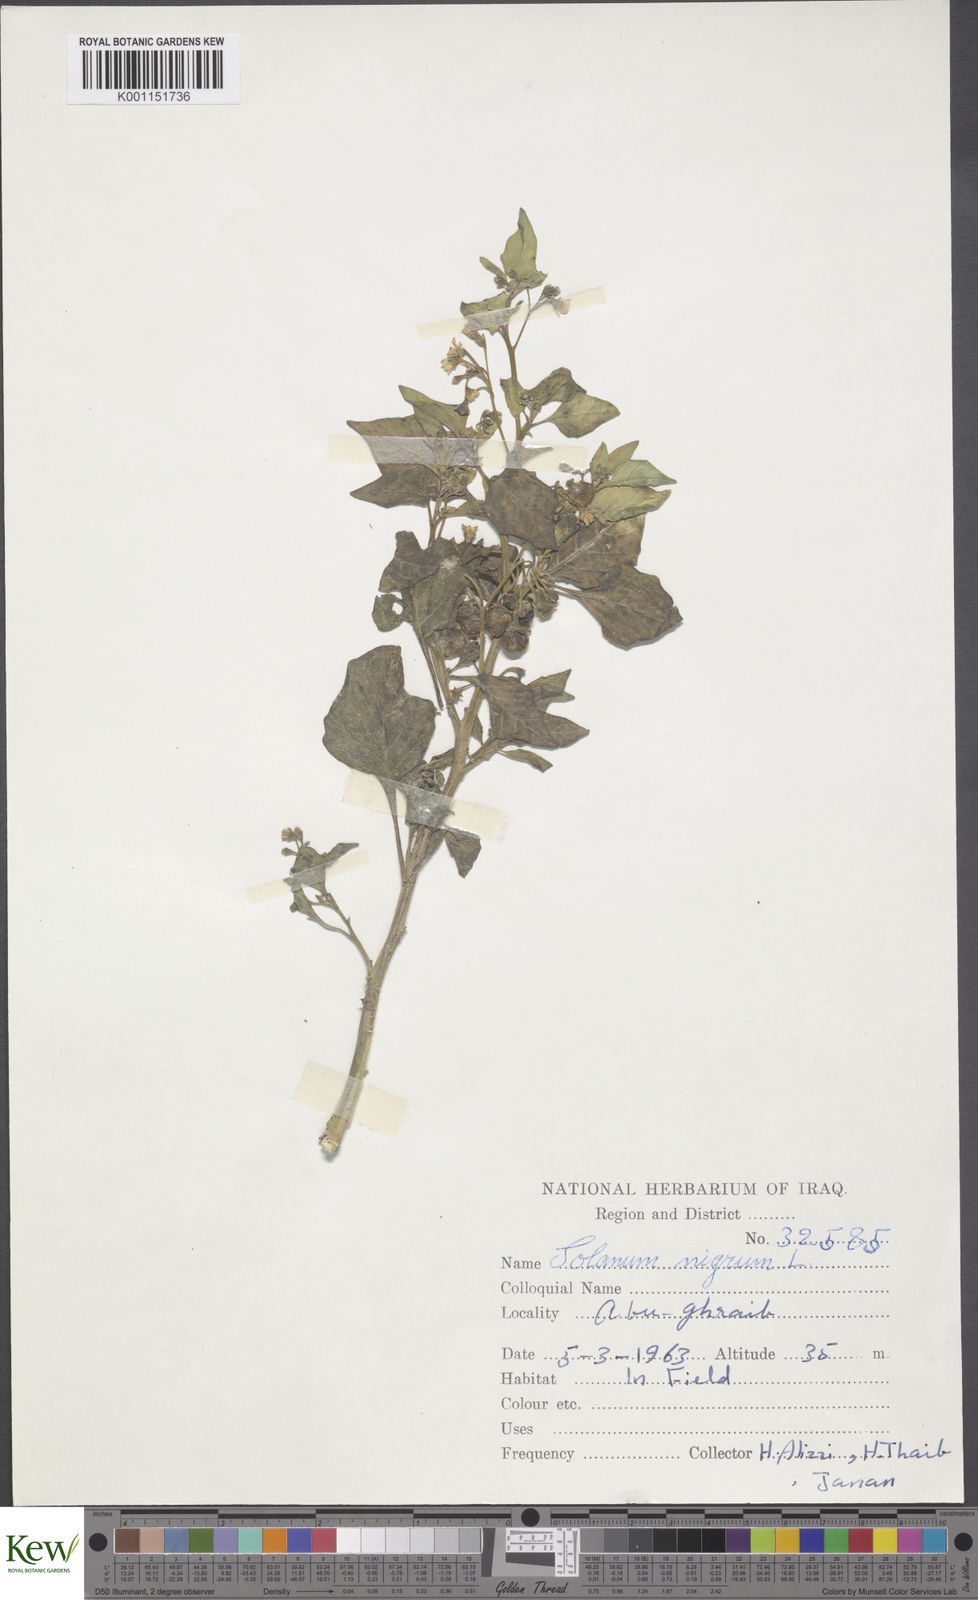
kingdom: Plantae
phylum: Tracheophyta
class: Magnoliopsida
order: Solanales
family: Solanaceae
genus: Solanum
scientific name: Solanum nigrum
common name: Black nightshade
